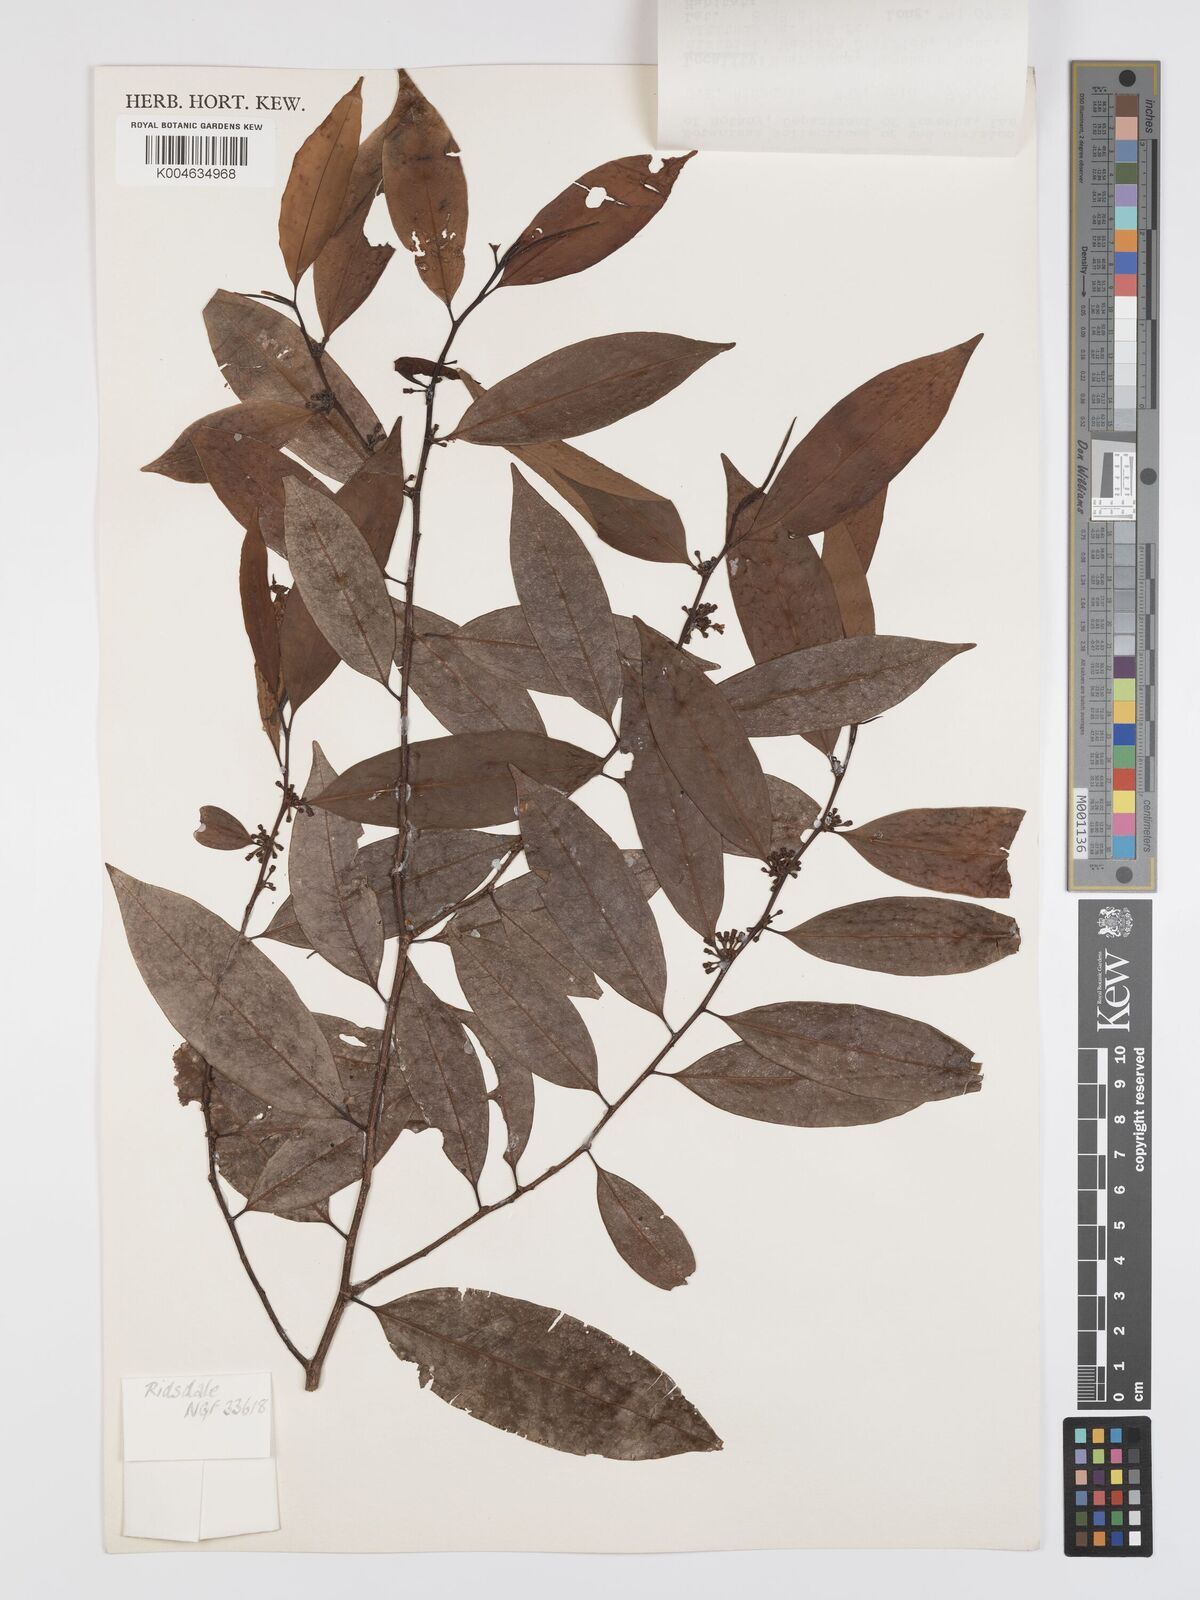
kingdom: Plantae
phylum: Tracheophyta
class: Magnoliopsida
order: Malpighiales
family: Erythroxylaceae
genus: Erythroxylum
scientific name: Erythroxylum ecarinatum
